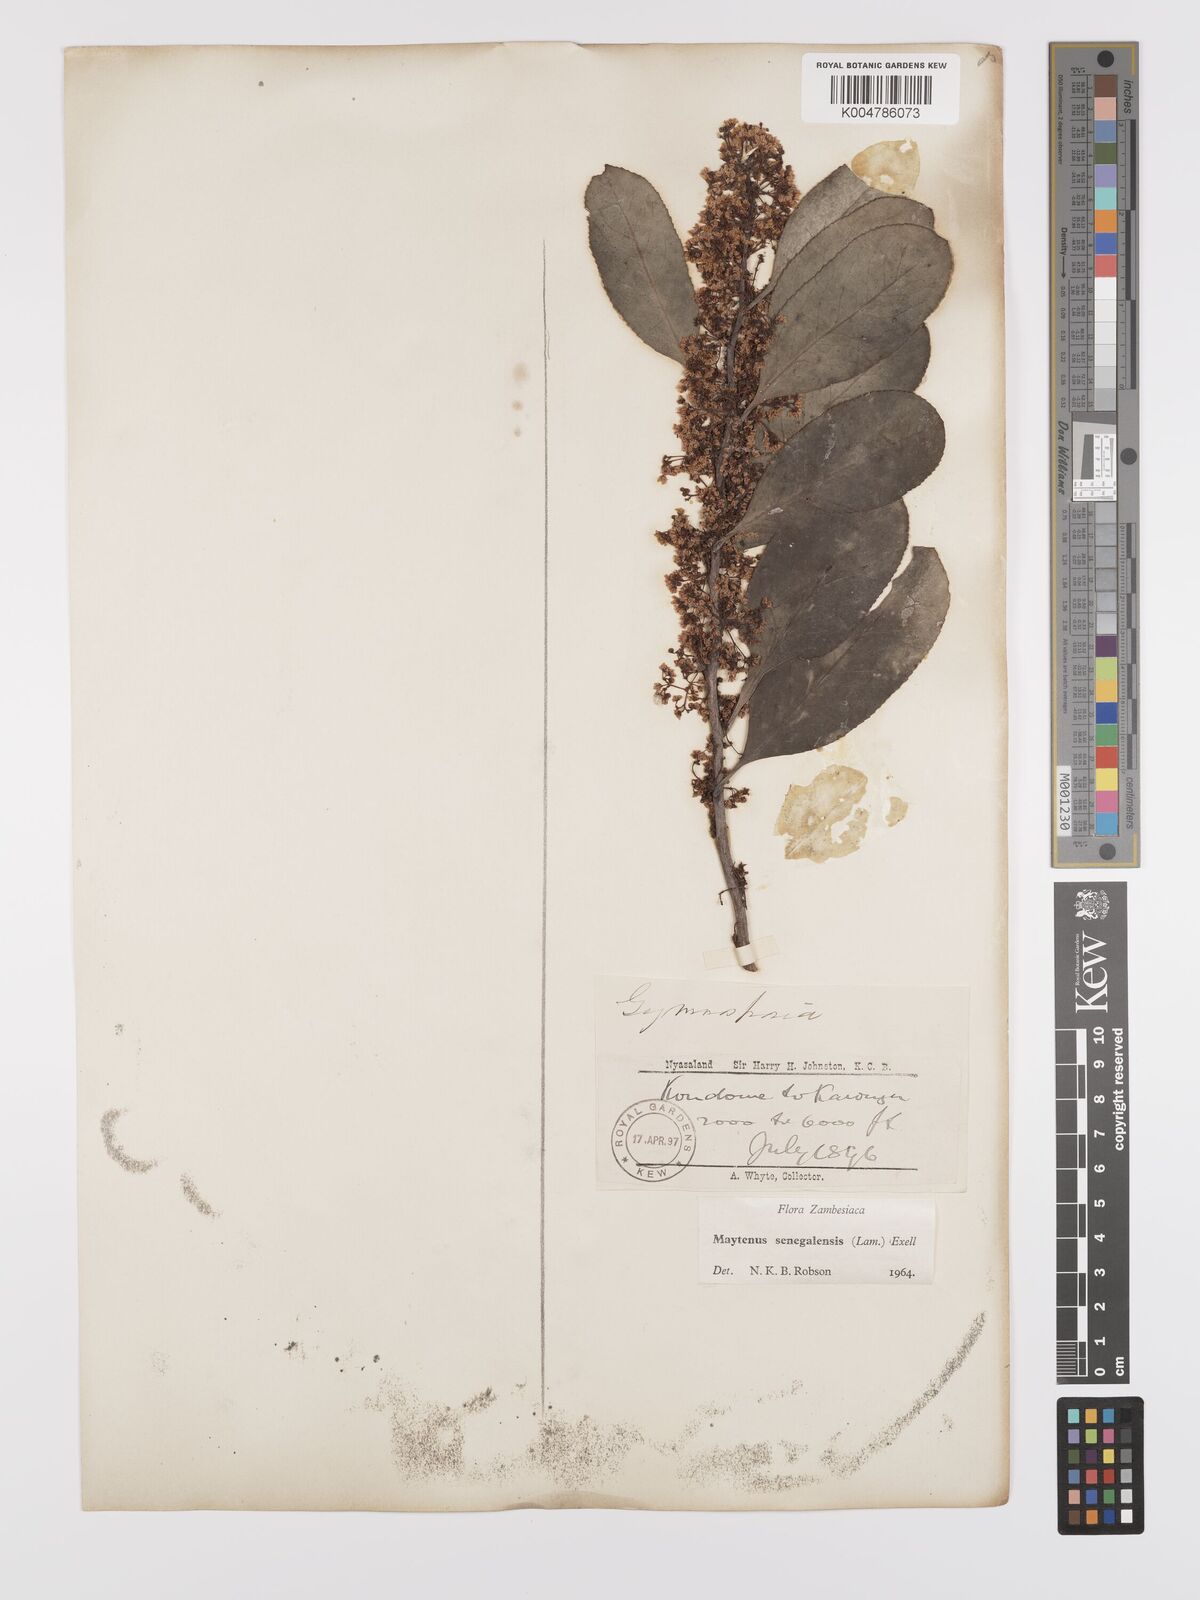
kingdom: Plantae
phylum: Tracheophyta
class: Magnoliopsida
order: Celastrales
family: Celastraceae
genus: Gymnosporia
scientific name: Gymnosporia senegalensis
